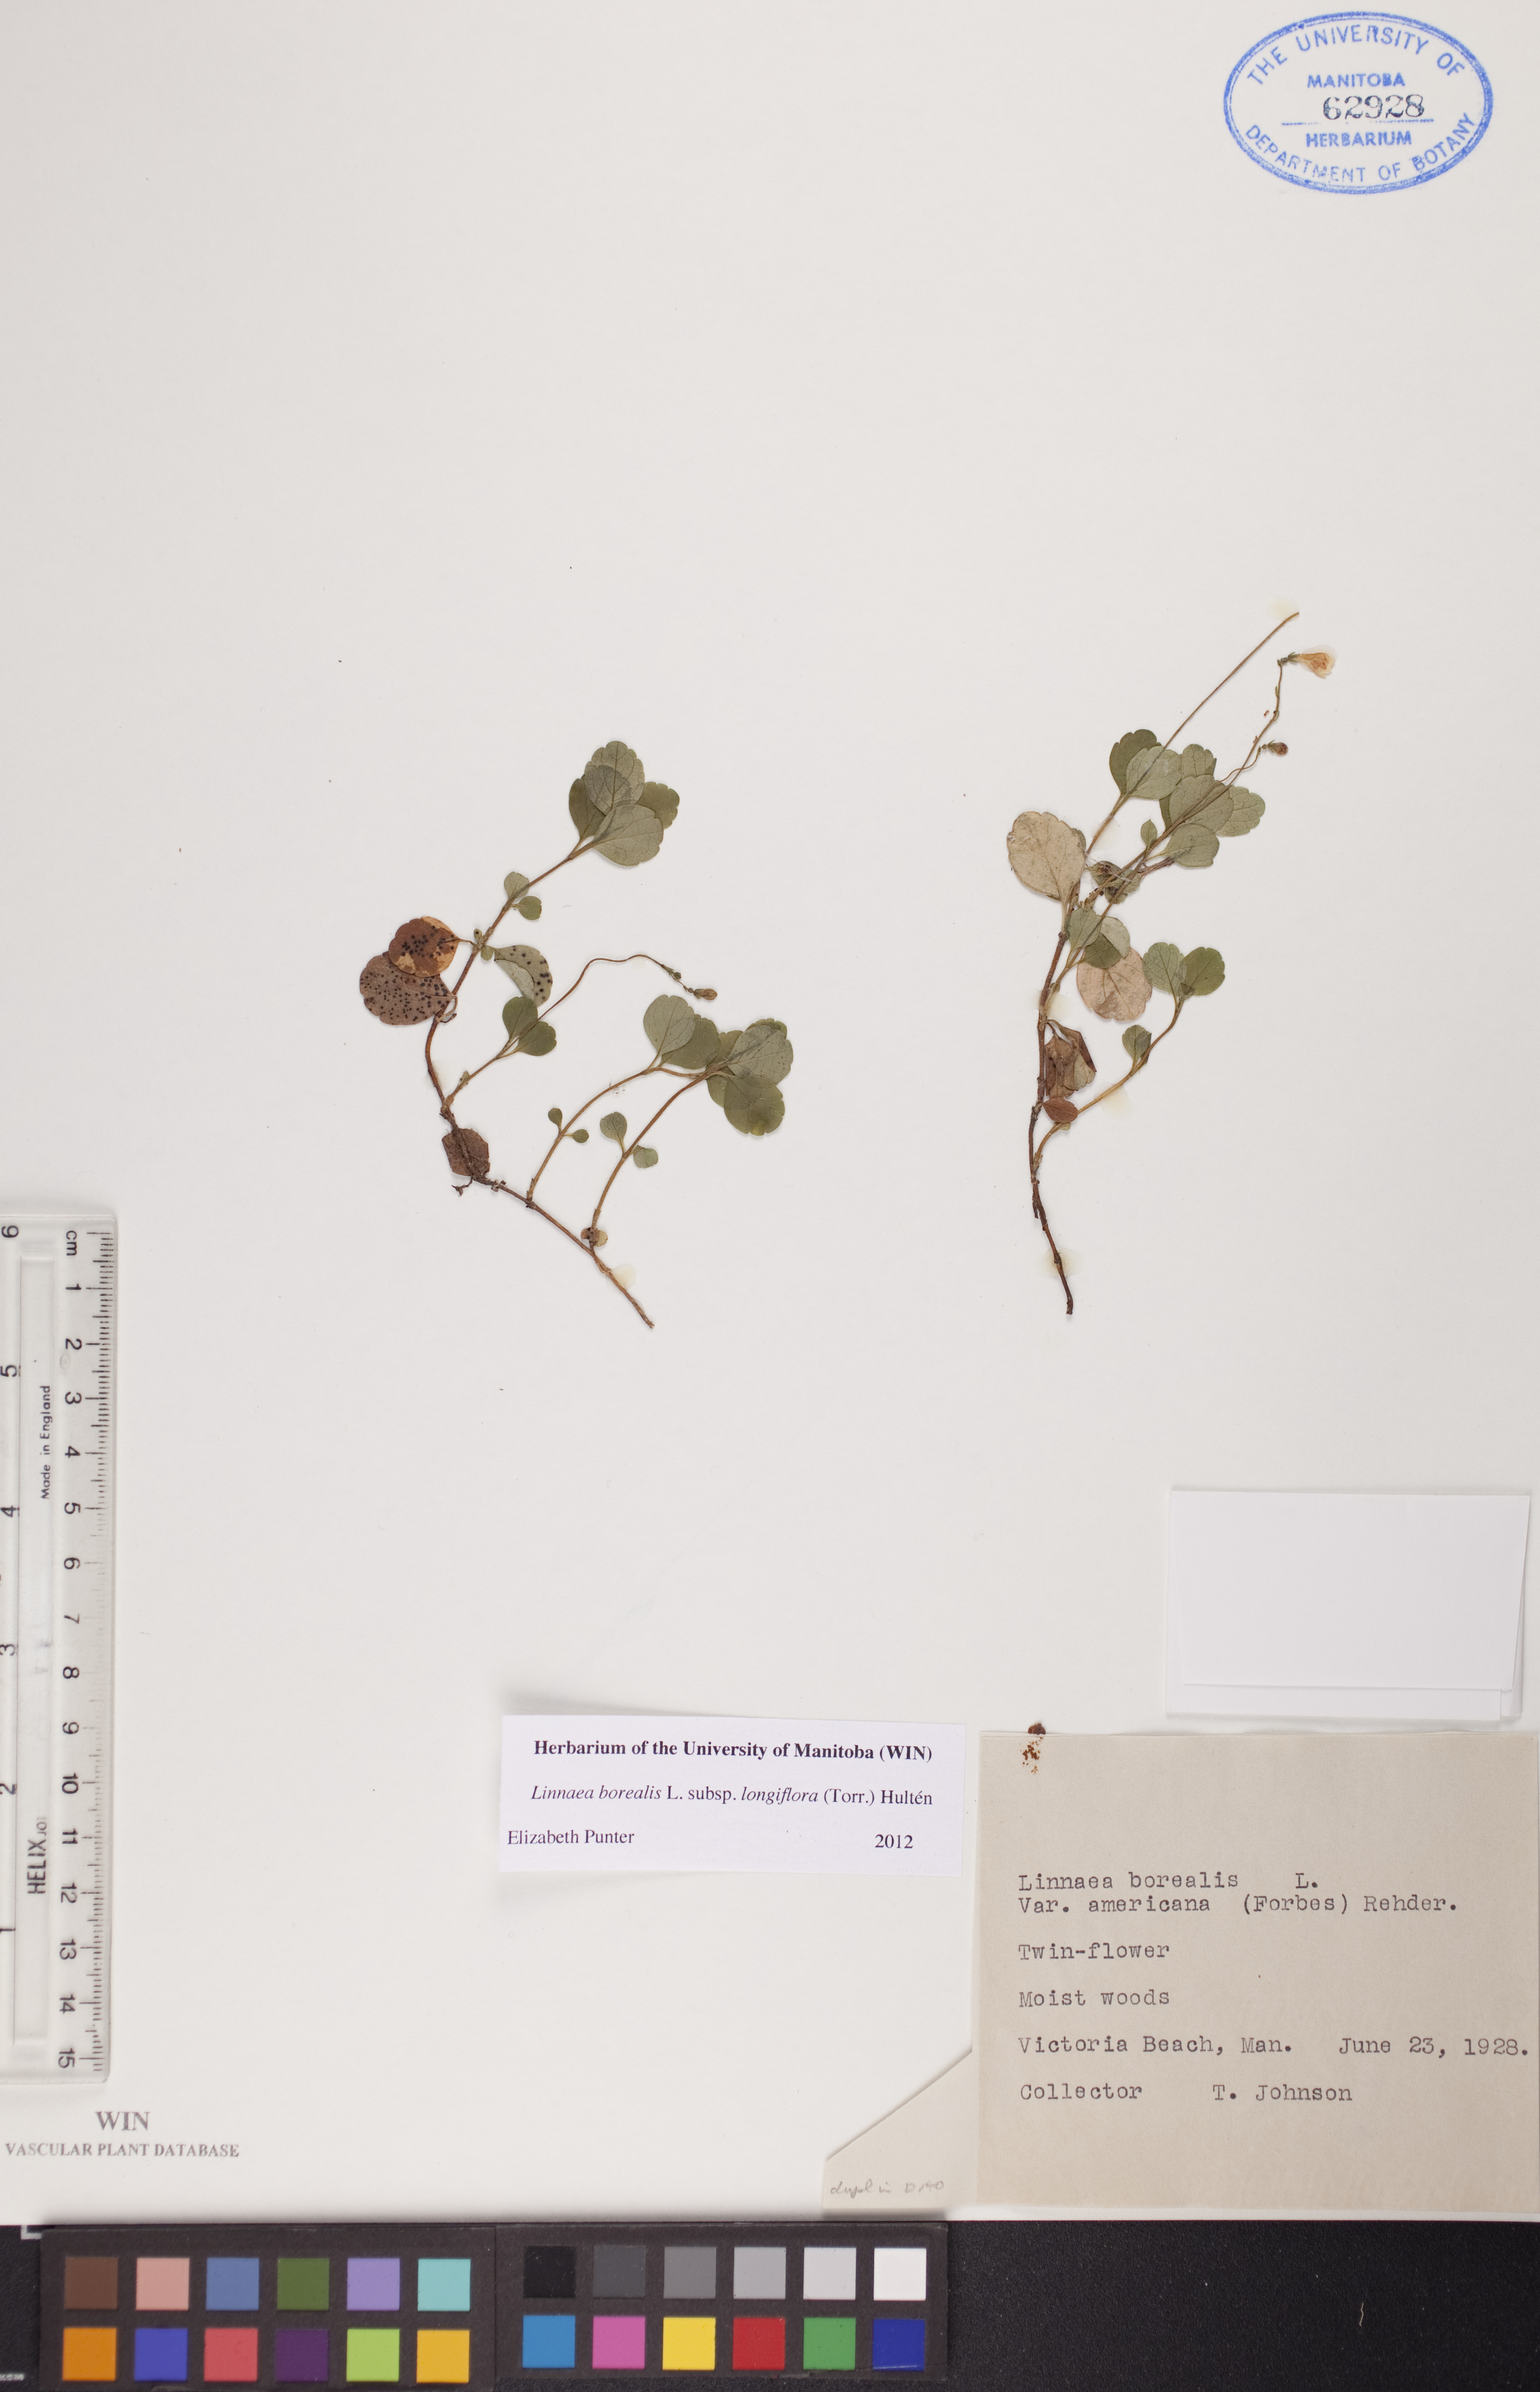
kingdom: Plantae
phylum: Tracheophyta
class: Magnoliopsida
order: Dipsacales
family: Caprifoliaceae
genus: Linnaea
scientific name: Linnaea borealis
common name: Twinflower
